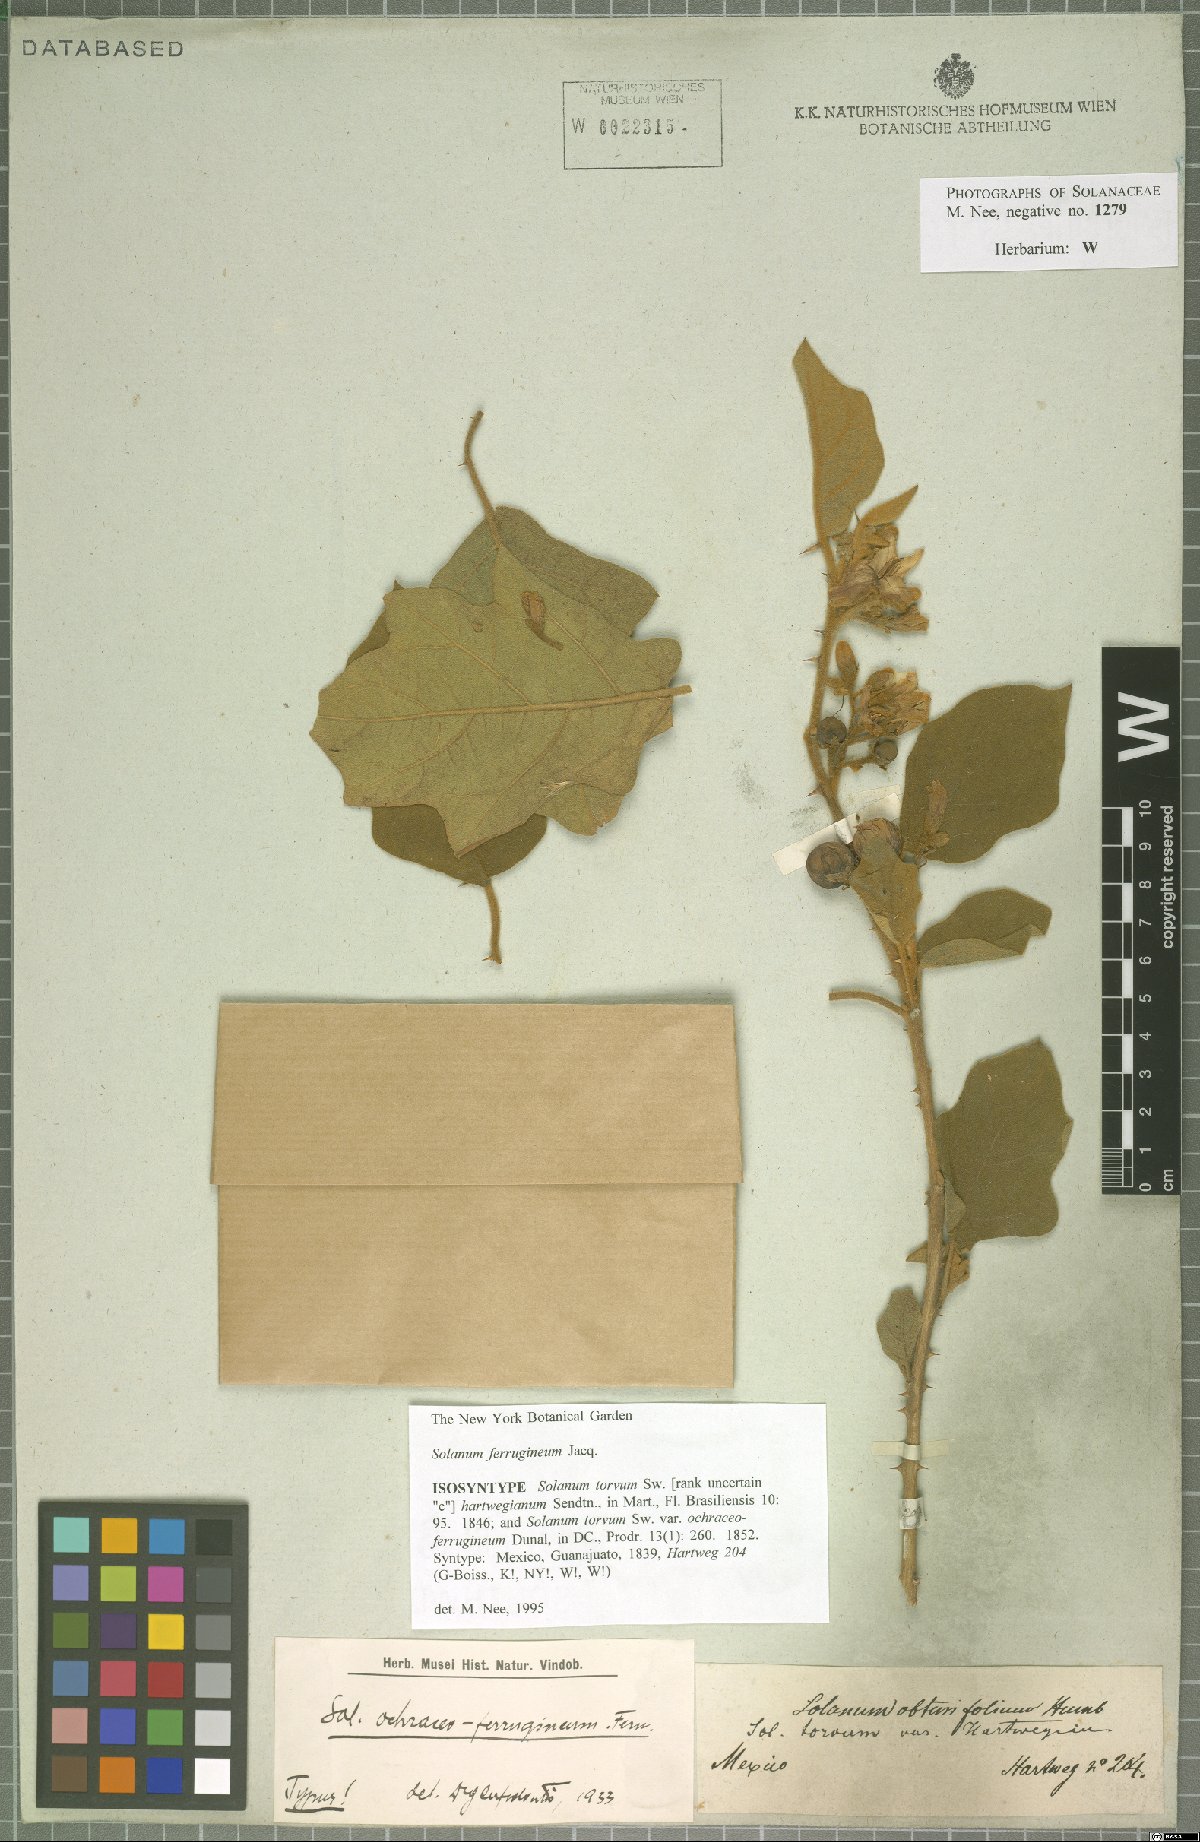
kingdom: Plantae
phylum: Tracheophyta
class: Magnoliopsida
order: Solanales
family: Solanaceae
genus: Solanum
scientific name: Solanum ferrugineum
